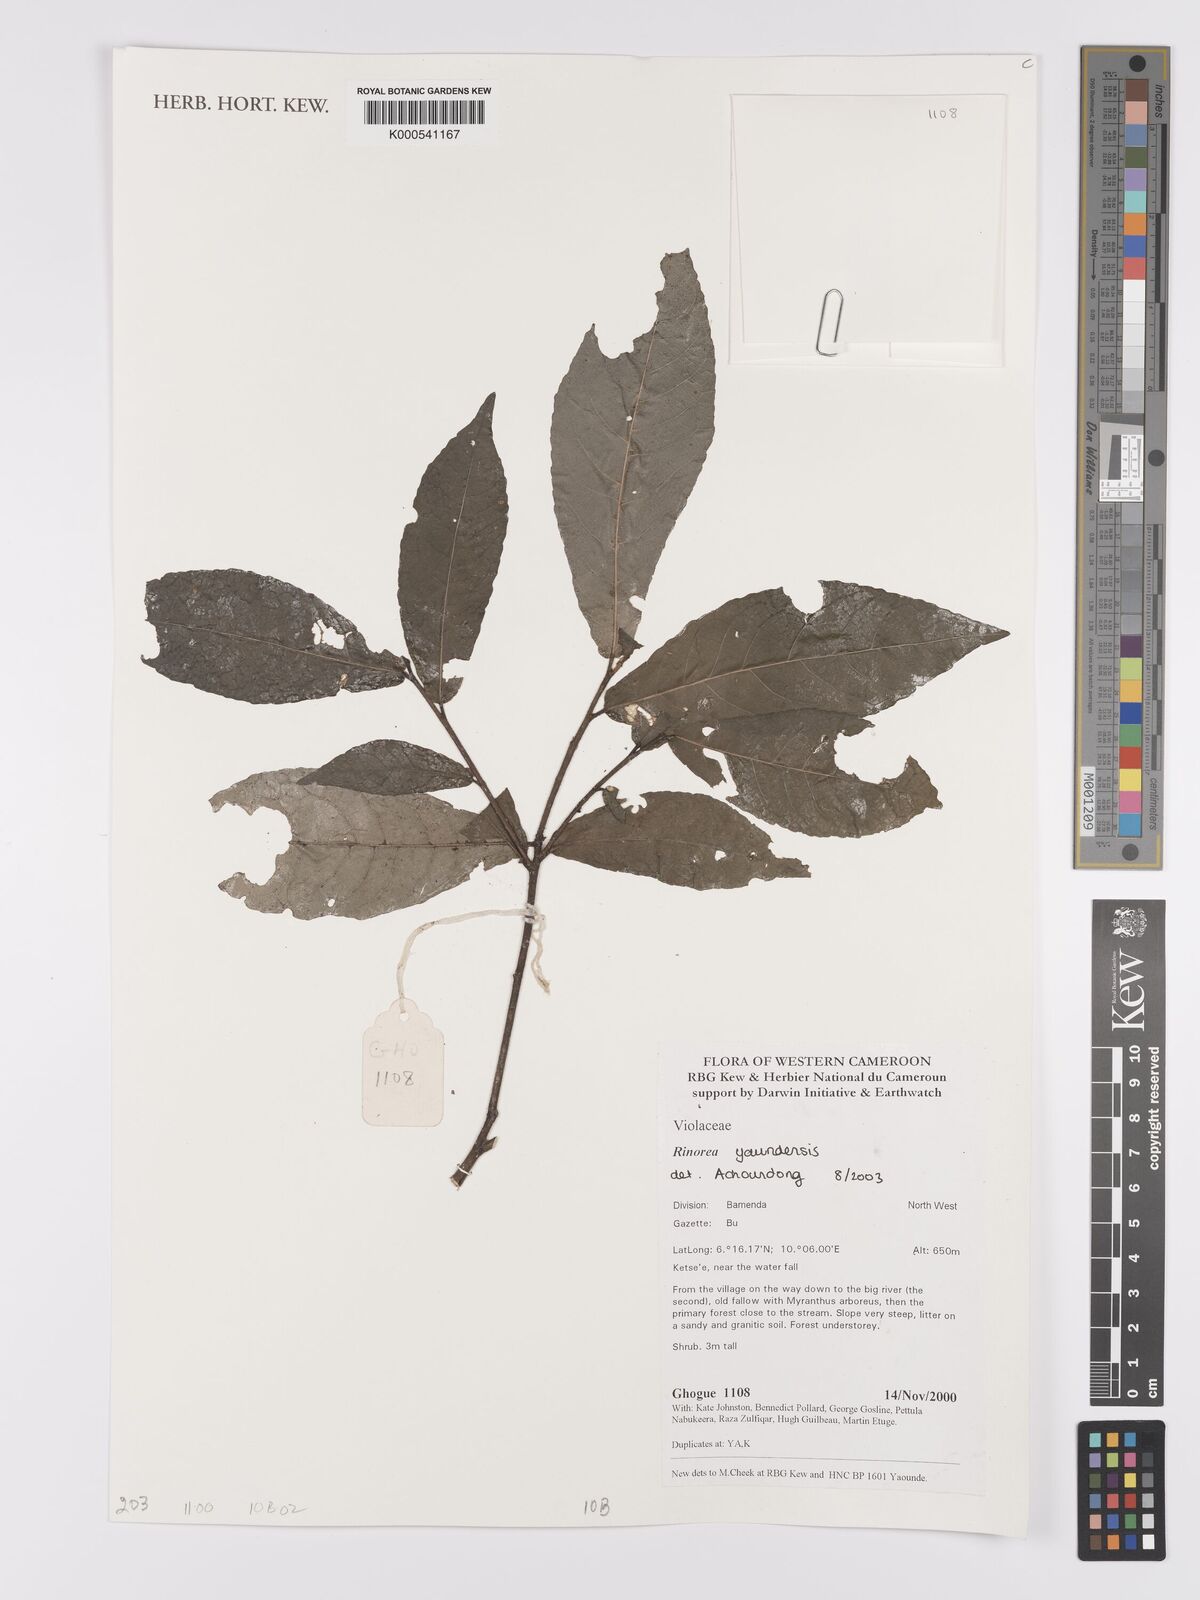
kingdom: Plantae
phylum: Tracheophyta
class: Magnoliopsida
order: Malpighiales
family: Violaceae
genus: Rinorea
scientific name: Rinorea yaundensis
